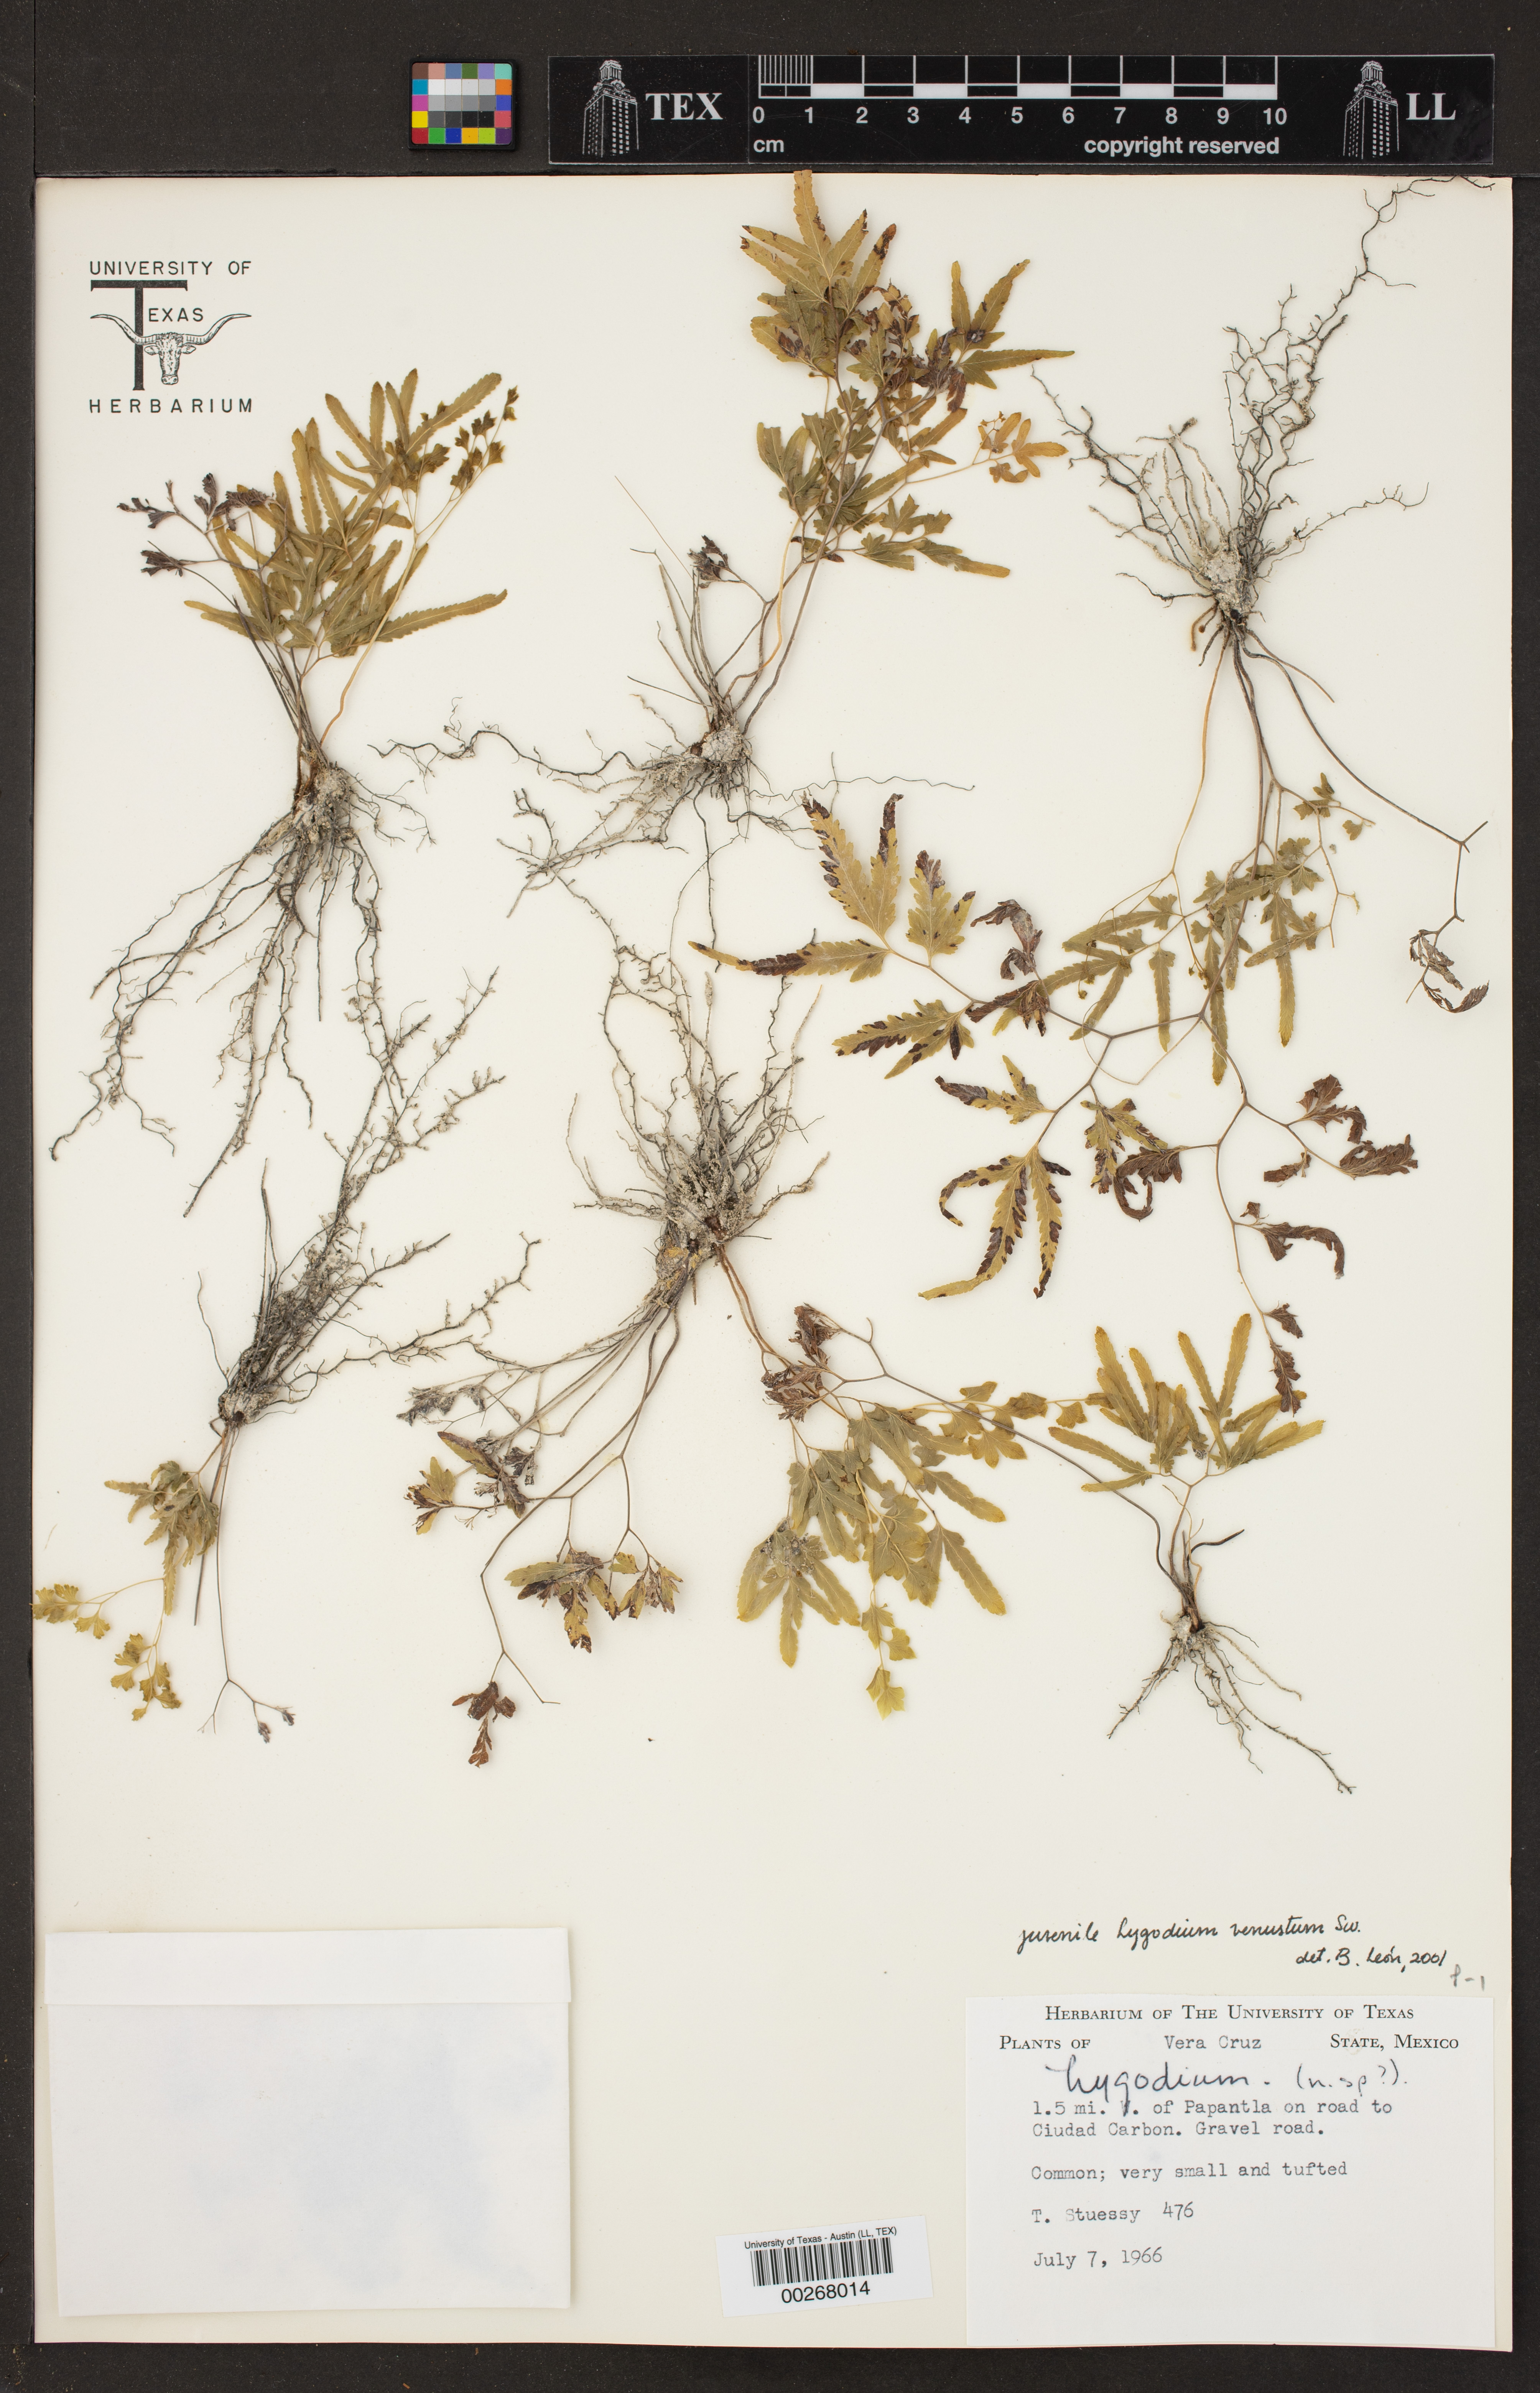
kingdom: Plantae
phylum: Tracheophyta
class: Polypodiopsida
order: Schizaeales
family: Lygodiaceae
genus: Lygodium
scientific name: Lygodium venustum
